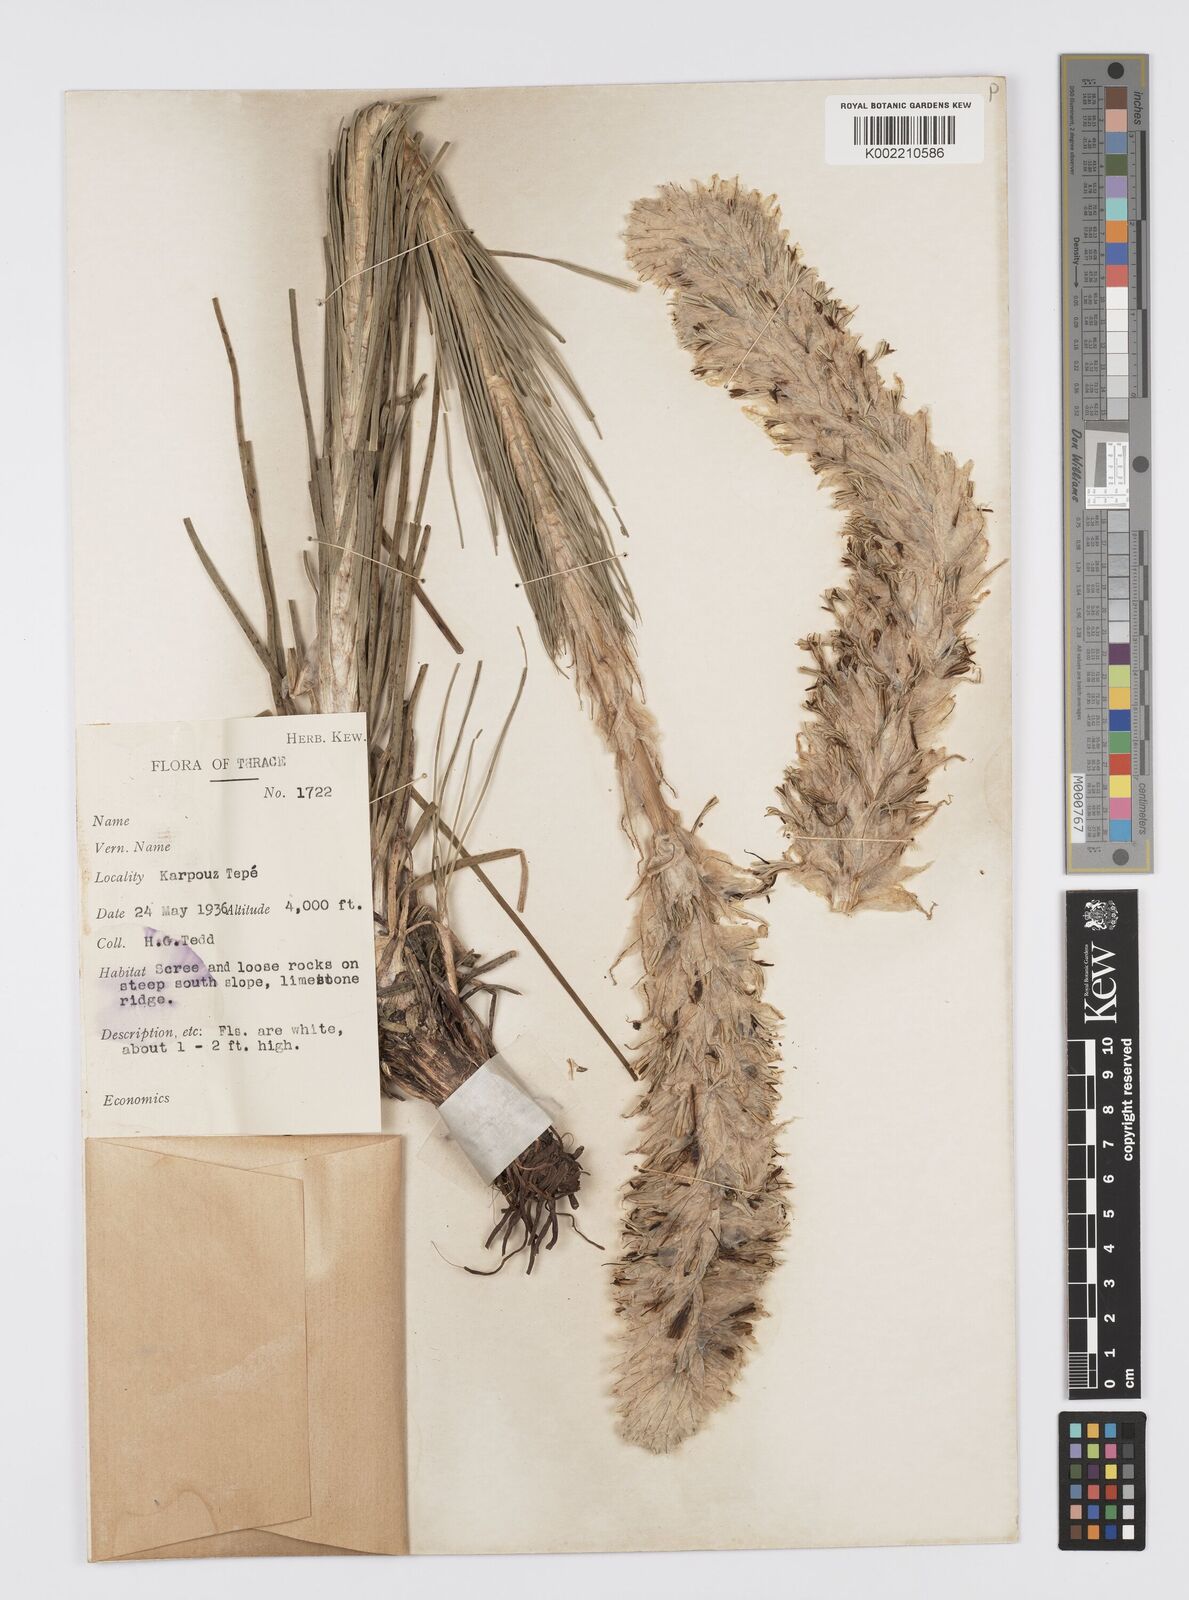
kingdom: Plantae
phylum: Tracheophyta
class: Liliopsida
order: Asparagales
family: Asphodelaceae
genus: Asphodeline
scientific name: Asphodeline taurica
